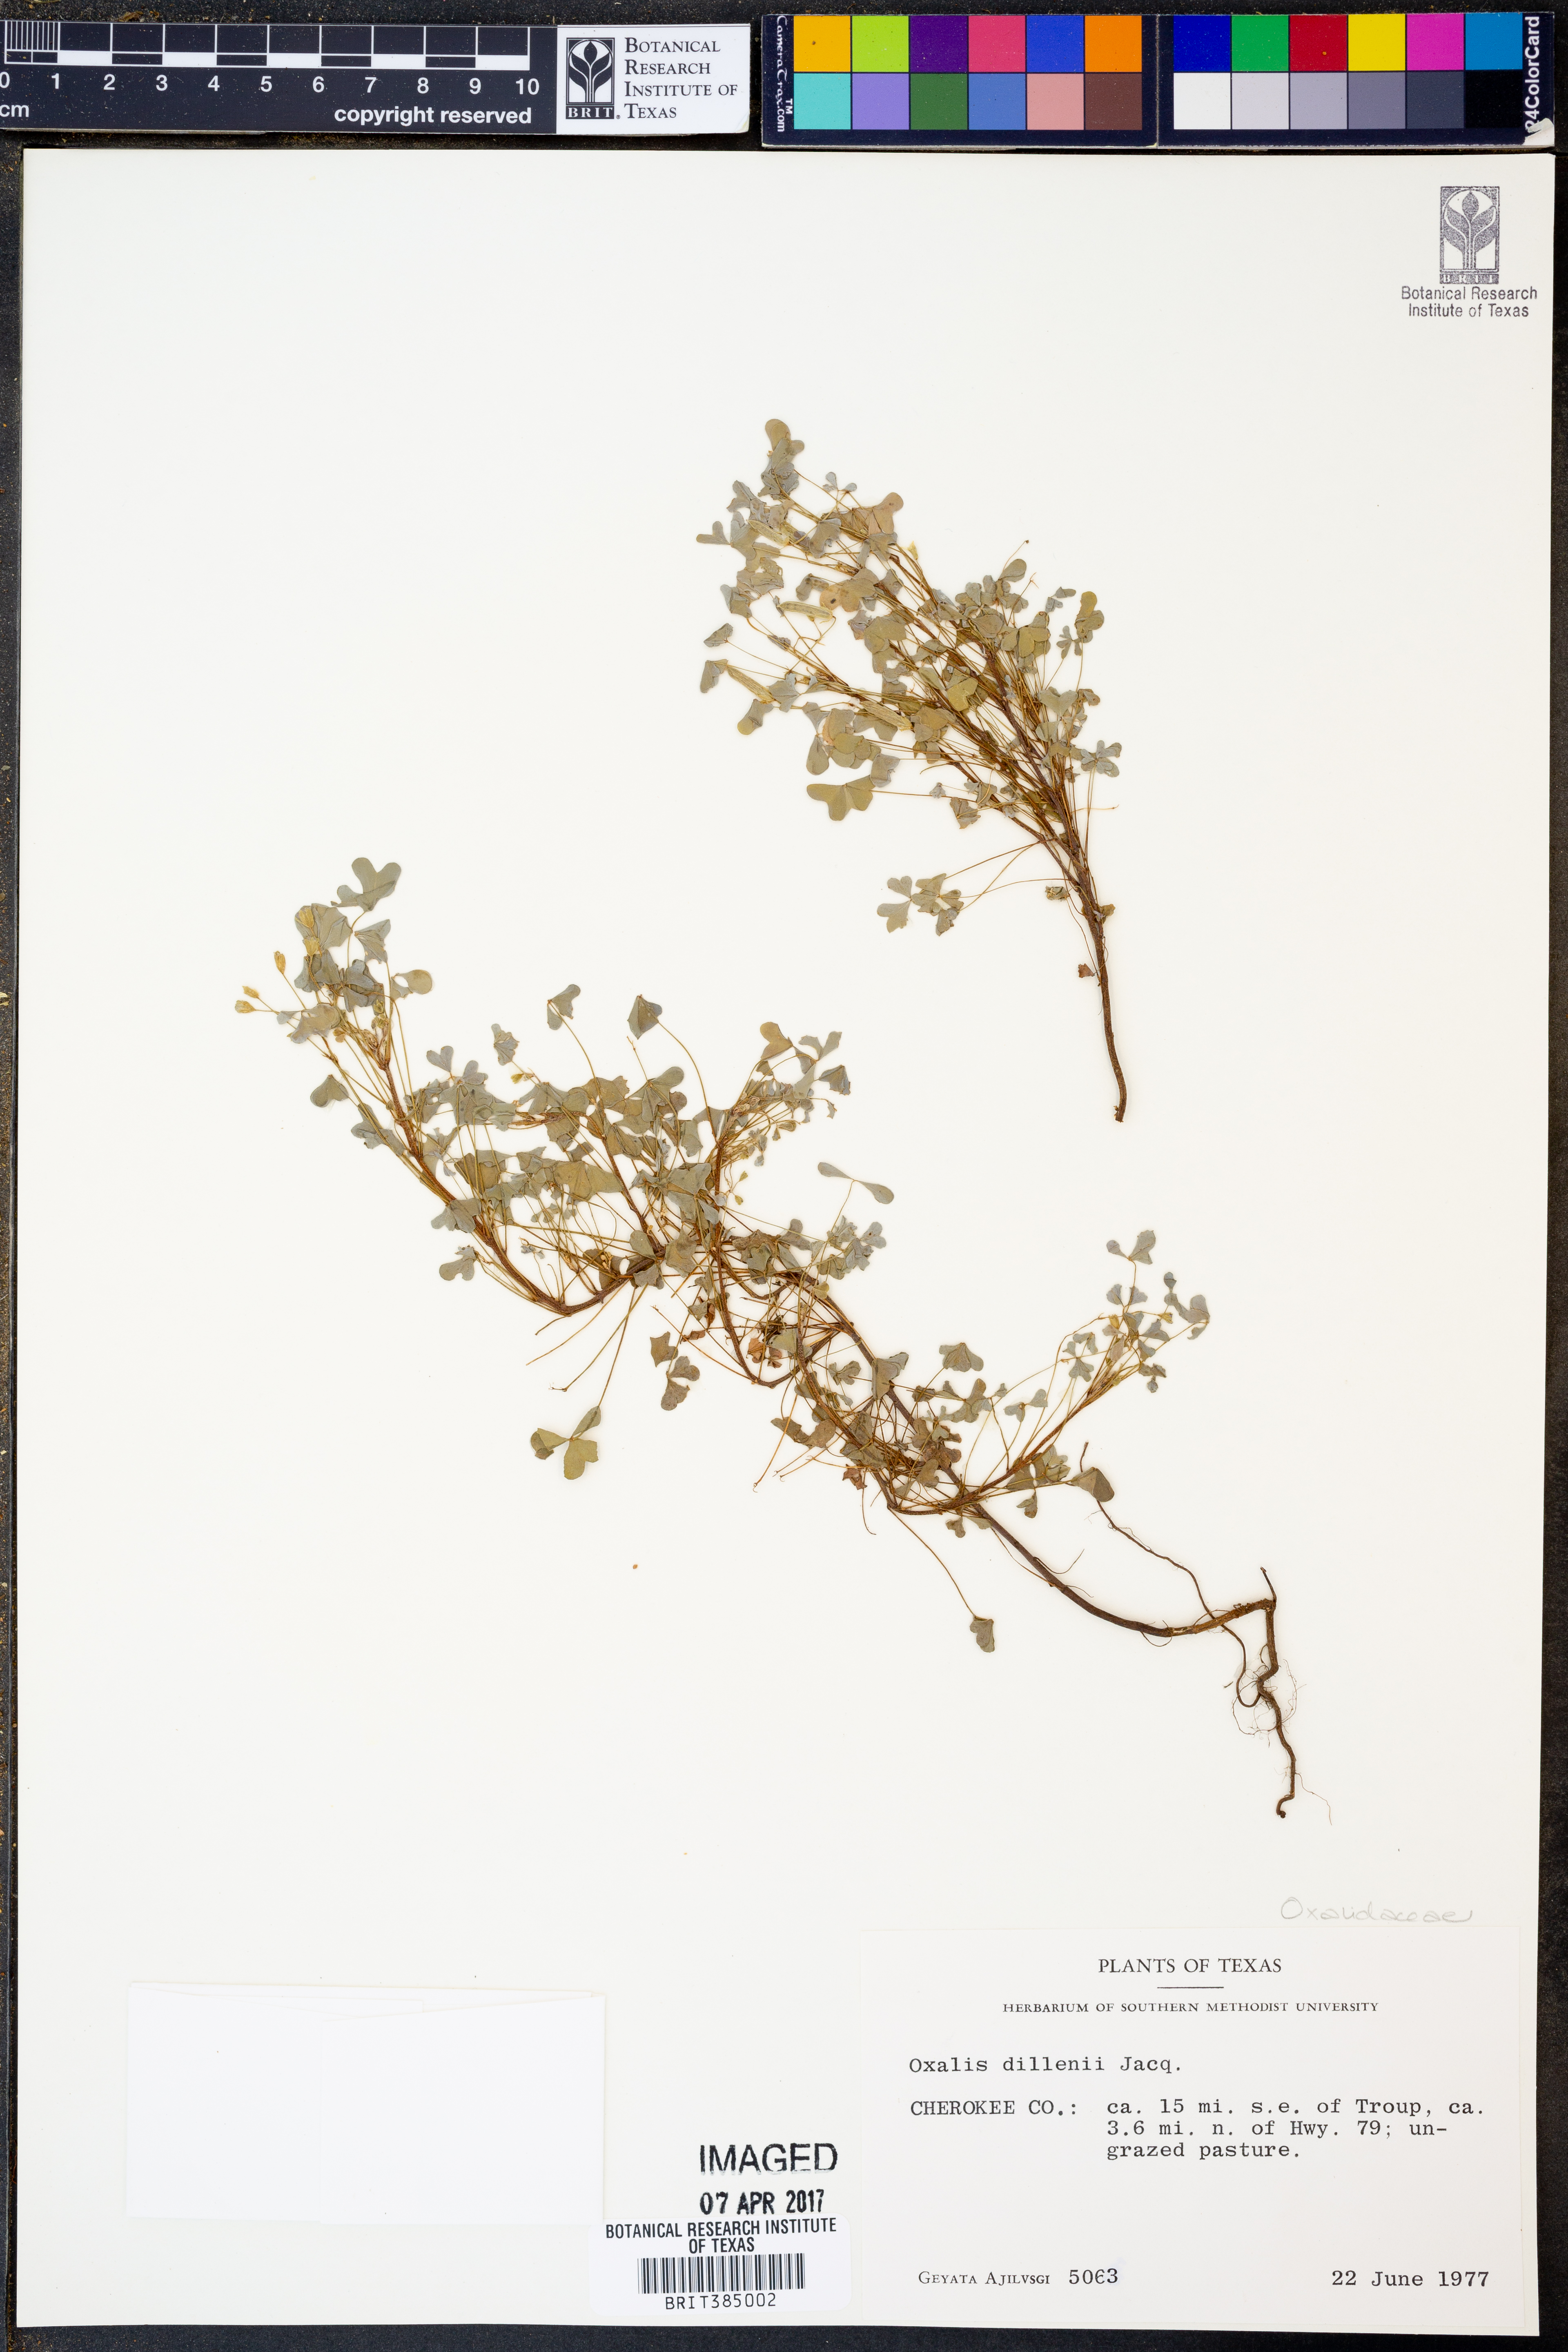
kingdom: Plantae
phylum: Tracheophyta
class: Magnoliopsida
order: Oxalidales
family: Oxalidaceae
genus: Oxalis
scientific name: Oxalis dillenii
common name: Sussex yellow-sorrel
